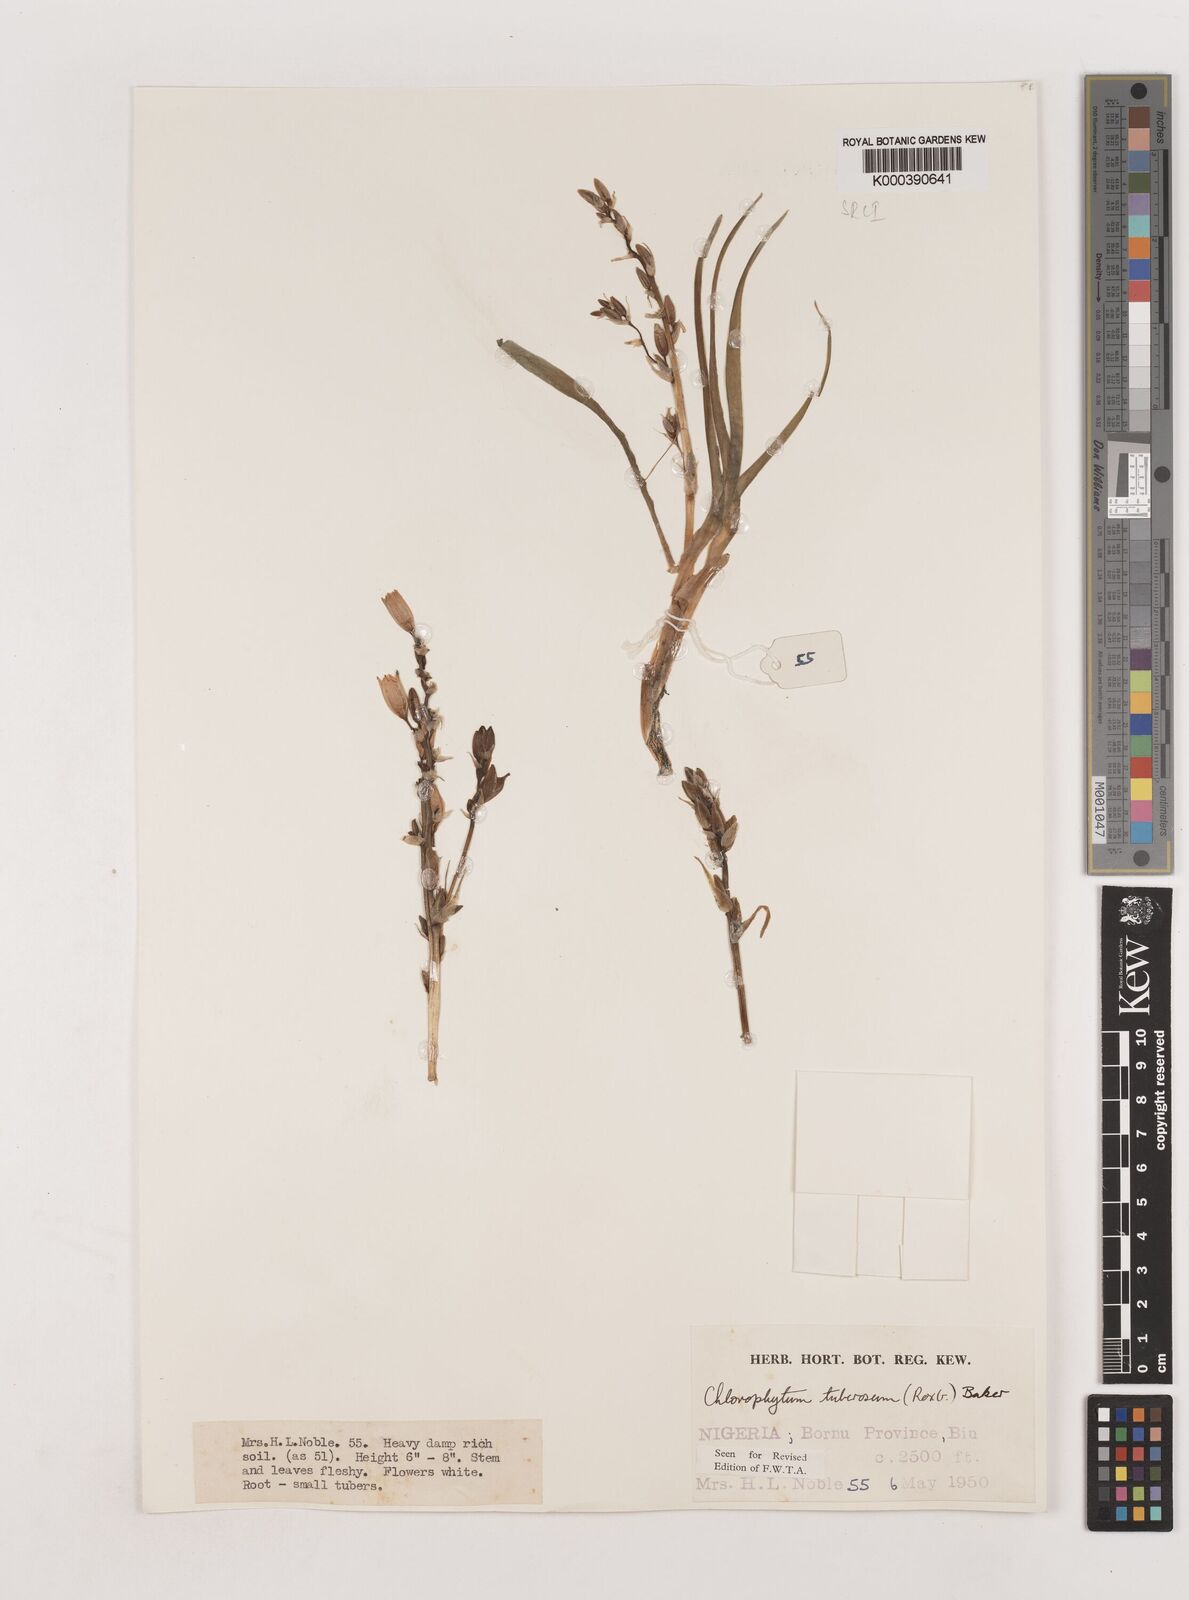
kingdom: Plantae
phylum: Tracheophyta
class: Liliopsida
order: Asparagales
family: Asparagaceae
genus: Chlorophytum
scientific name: Chlorophytum tuberosum
